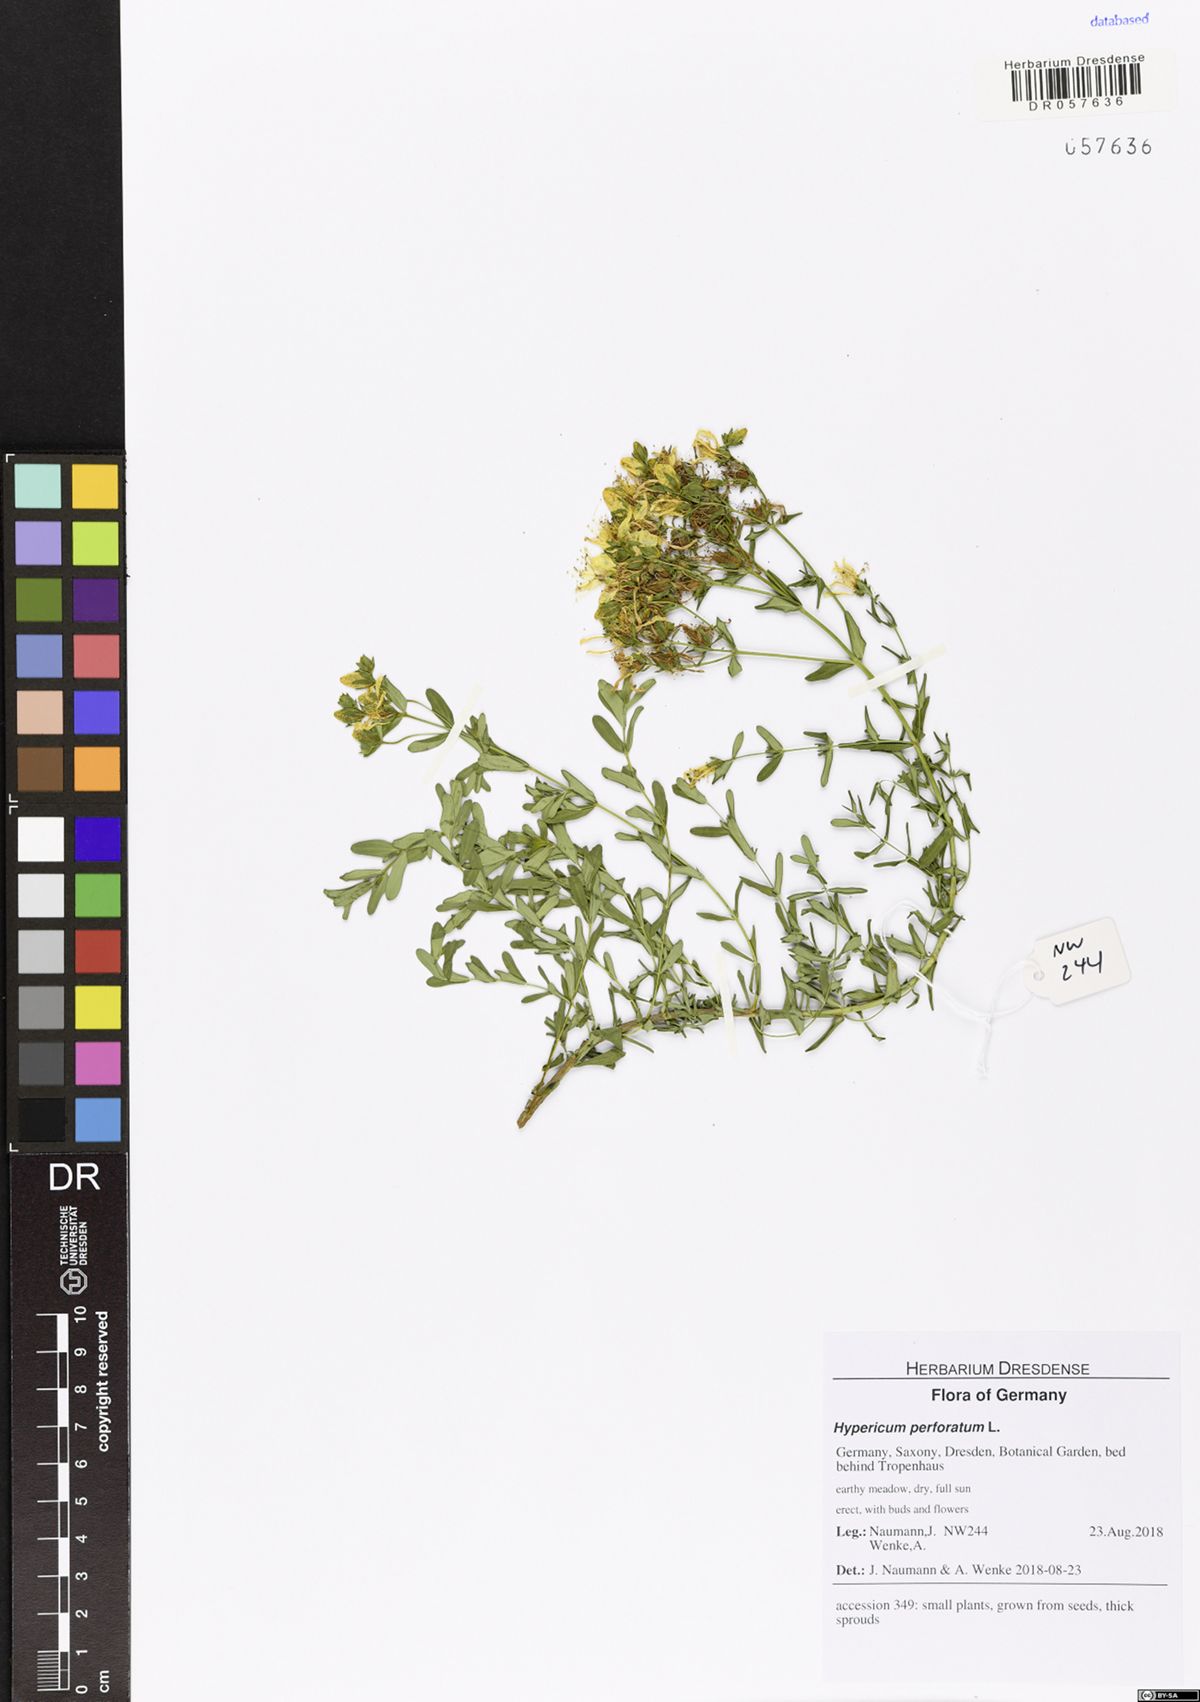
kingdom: Plantae
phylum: Tracheophyta
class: Magnoliopsida
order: Malpighiales
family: Hypericaceae
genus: Hypericum
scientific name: Hypericum perforatum
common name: Common st. johnswort
